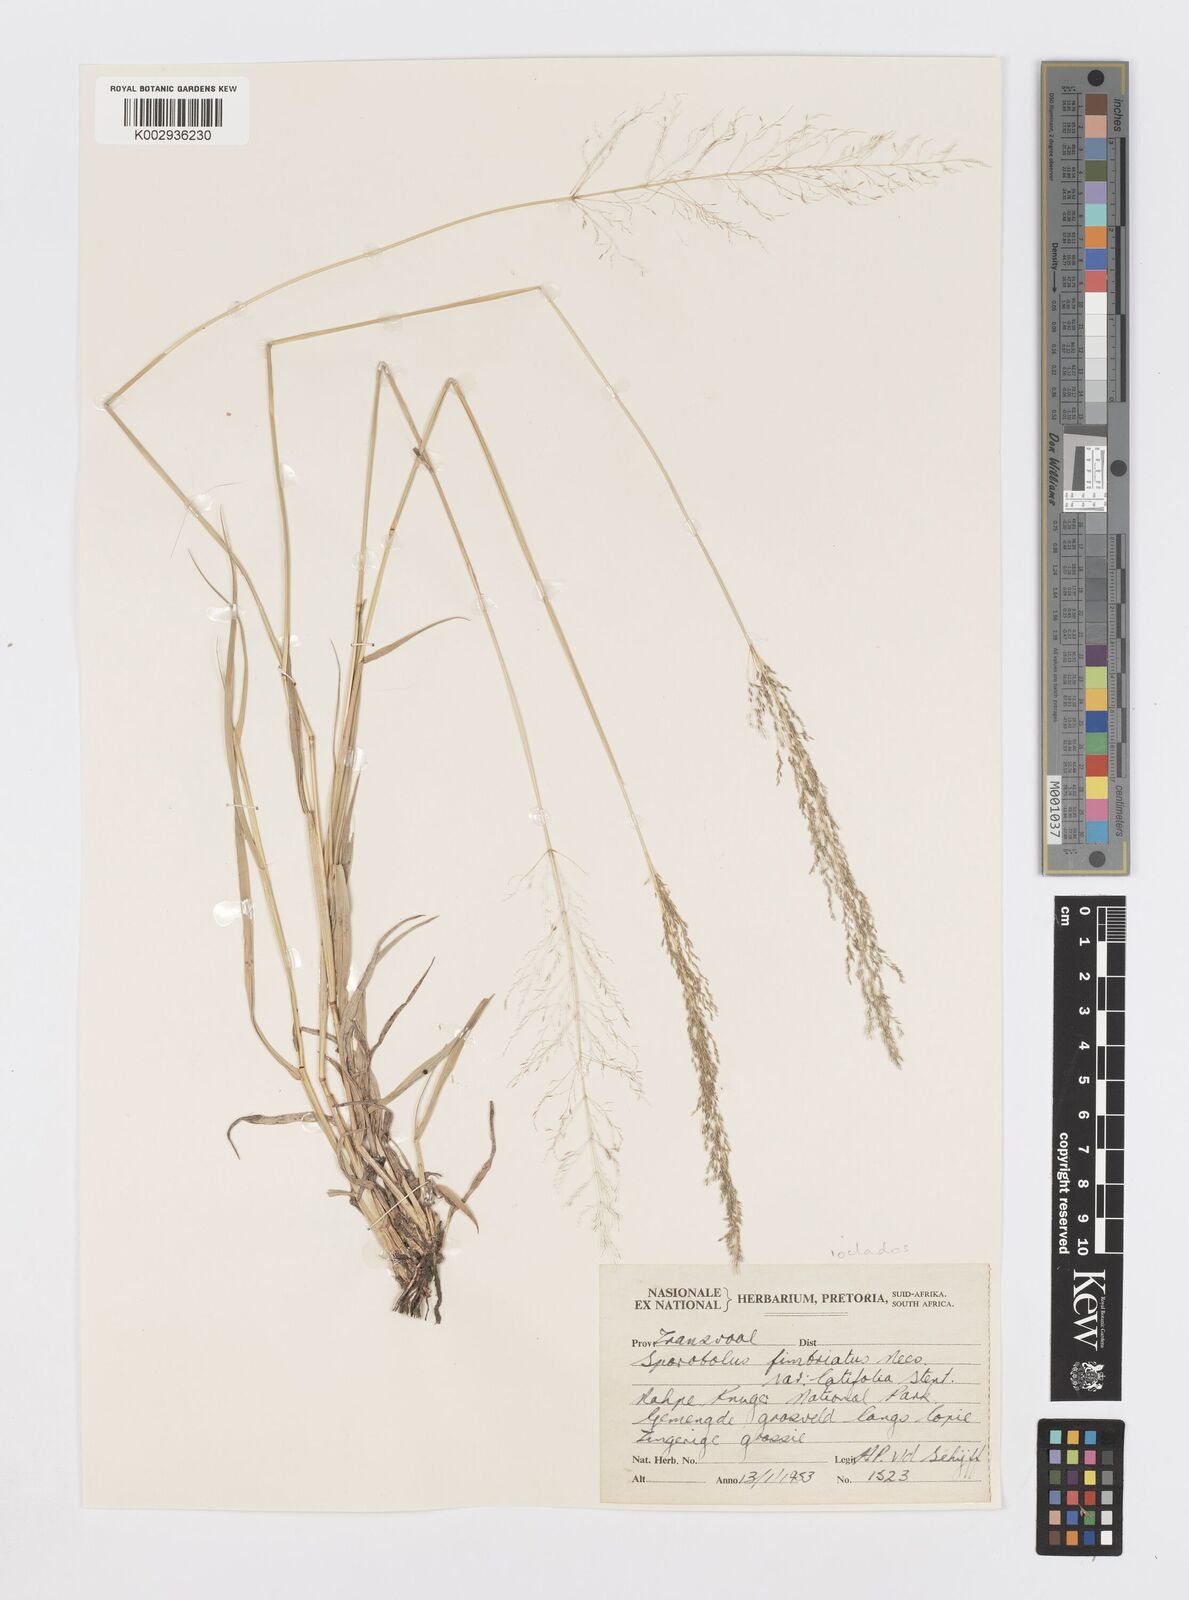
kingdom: Plantae
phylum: Tracheophyta
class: Liliopsida
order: Poales
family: Poaceae
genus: Sporobolus
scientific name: Sporobolus ioclados
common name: Pan dropseed
